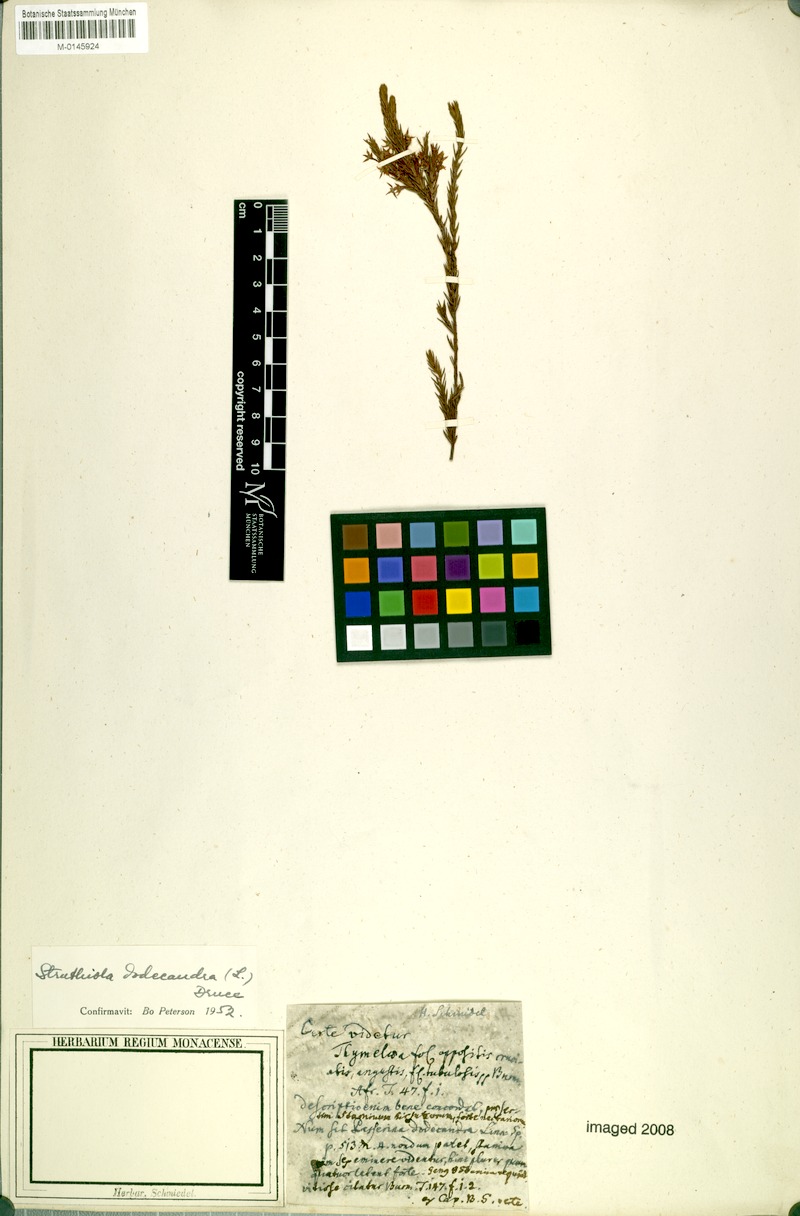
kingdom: Plantae
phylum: Tracheophyta
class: Magnoliopsida
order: Malvales
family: Thymelaeaceae
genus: Struthiola
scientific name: Struthiola dodecandra
